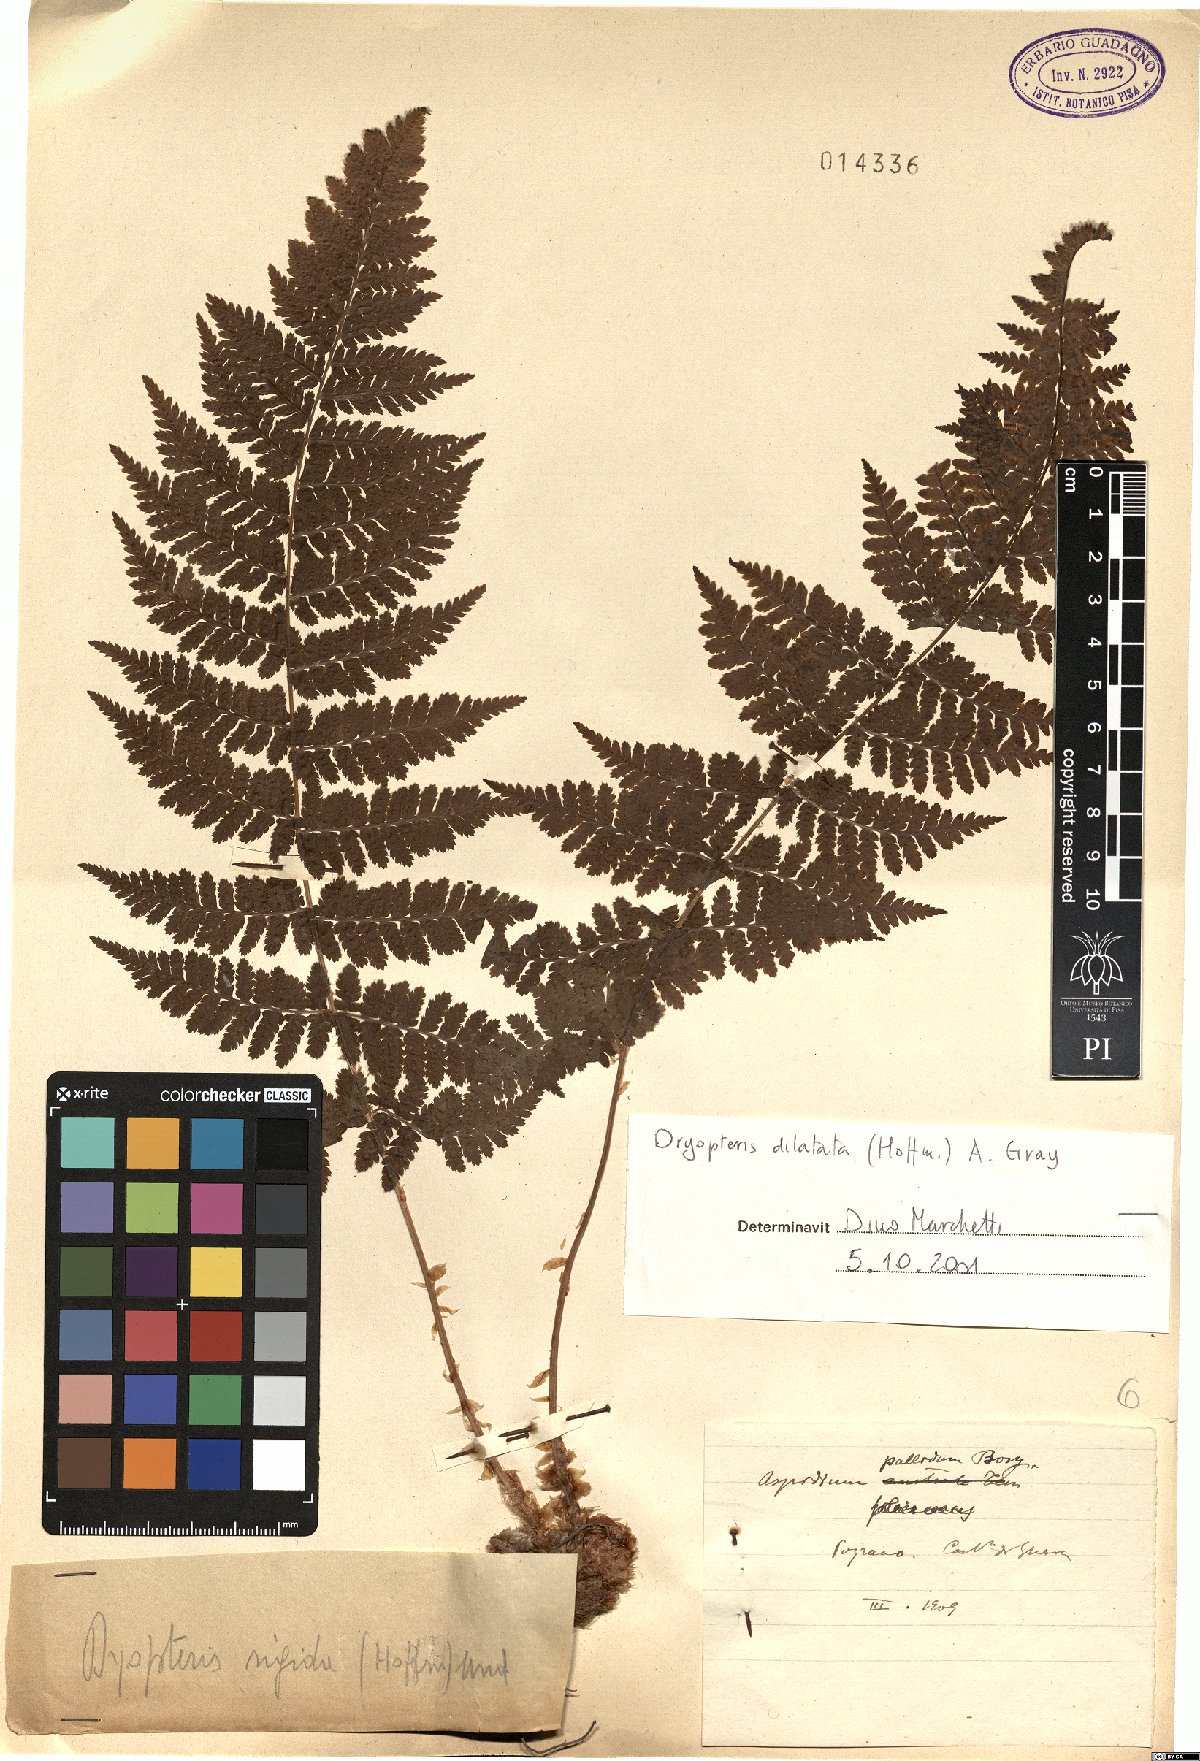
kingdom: Plantae
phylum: Tracheophyta
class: Polypodiopsida
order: Polypodiales
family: Dryopteridaceae
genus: Dryopteris
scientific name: Dryopteris dilatata
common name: Broad buckler-fern
